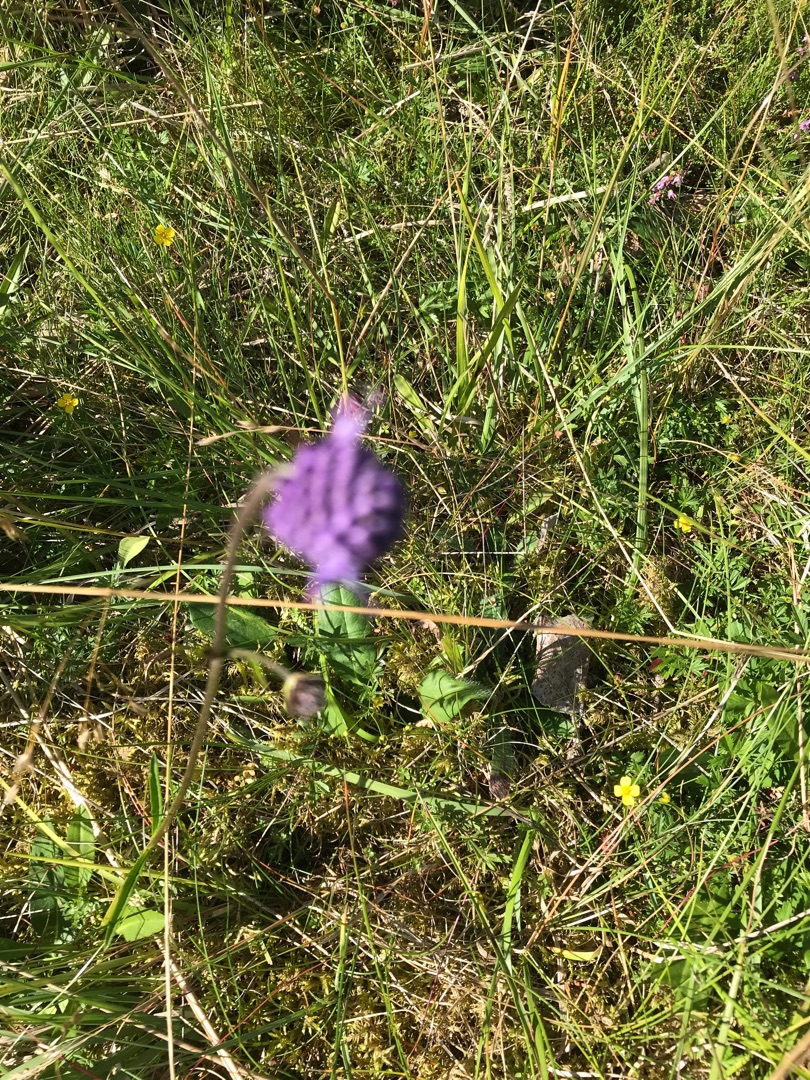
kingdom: Plantae
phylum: Tracheophyta
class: Magnoliopsida
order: Dipsacales
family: Caprifoliaceae
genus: Succisa
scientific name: Succisa pratensis
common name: Djævelsbid
